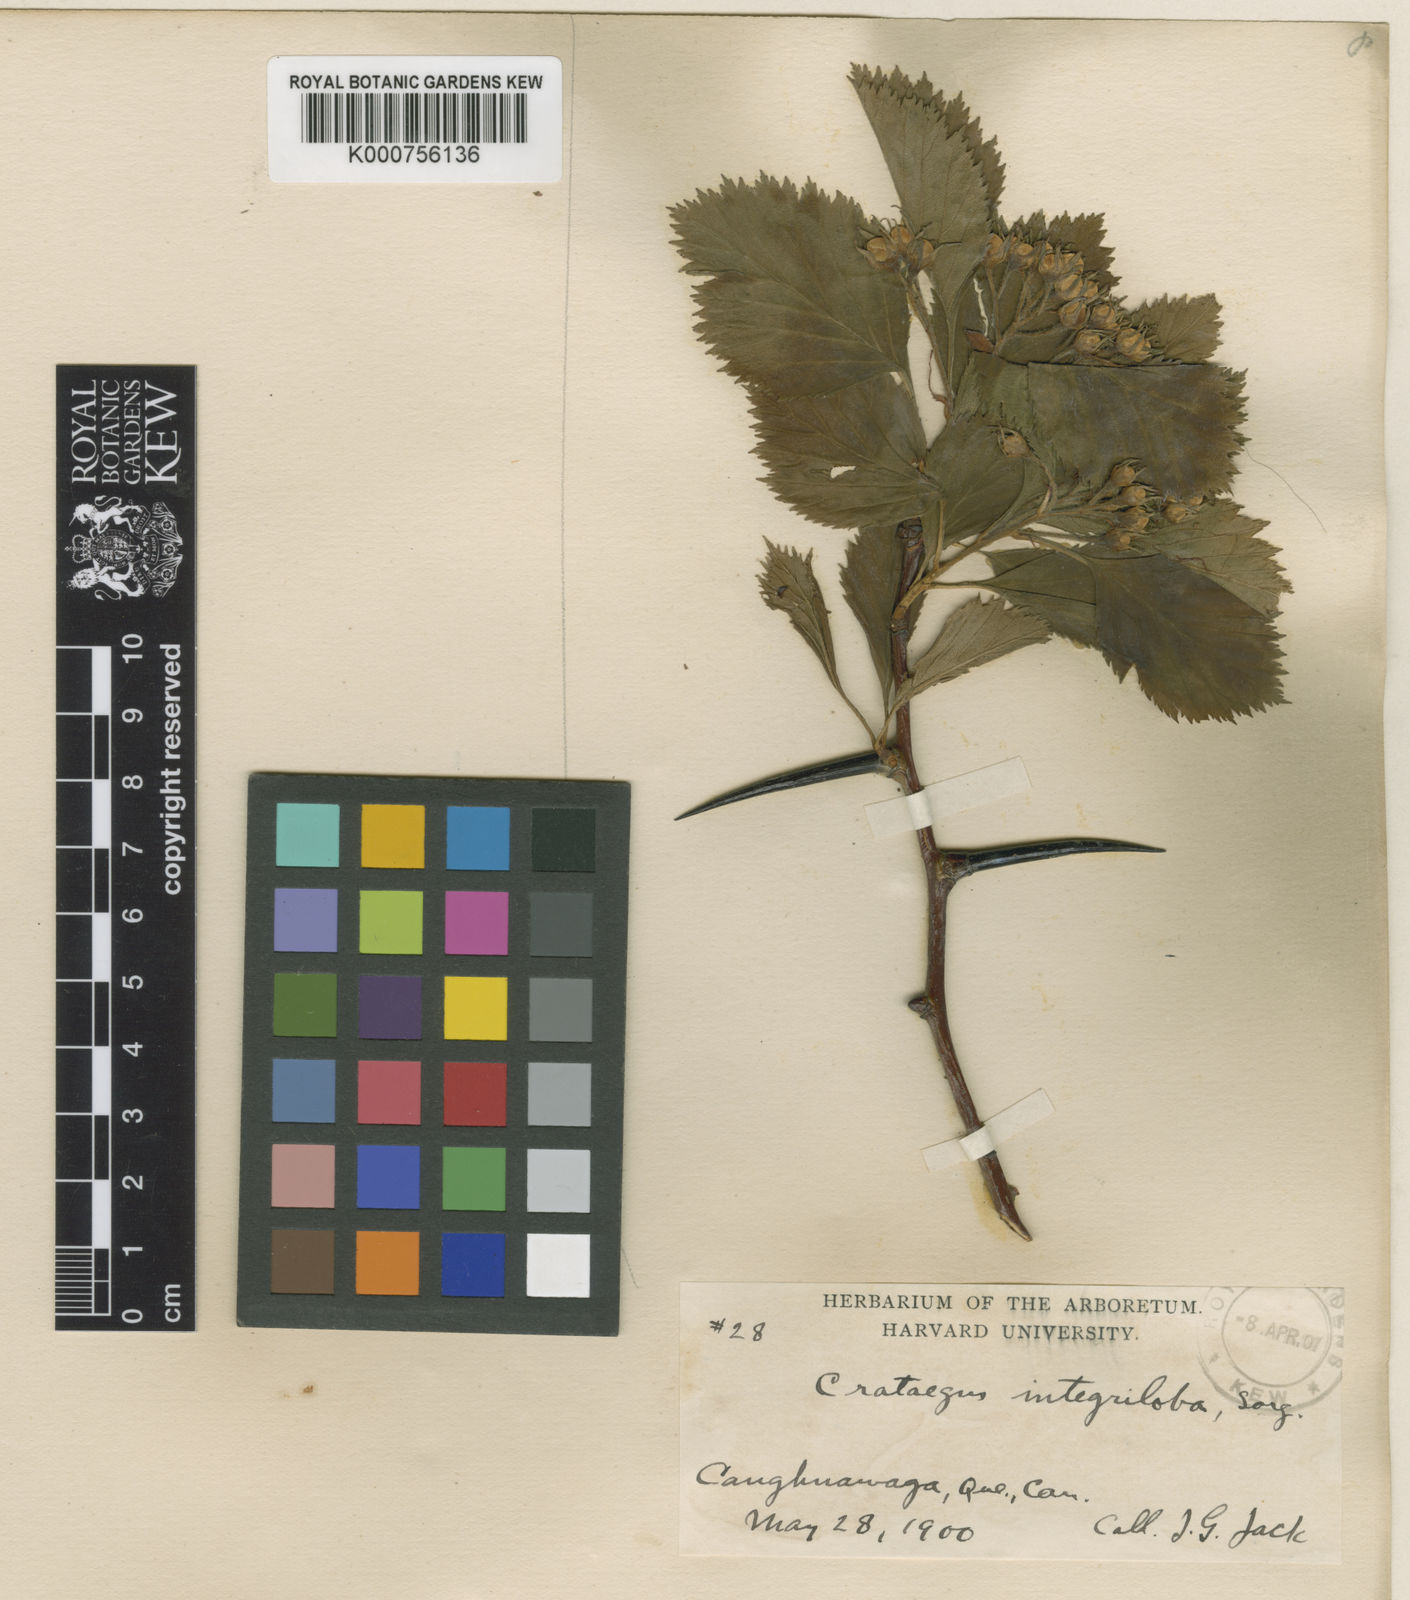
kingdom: Plantae
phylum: Tracheophyta
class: Magnoliopsida
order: Rosales
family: Rosaceae
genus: Crataegus
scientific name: Crataegus succulenta
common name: Fleshy hawthorn
